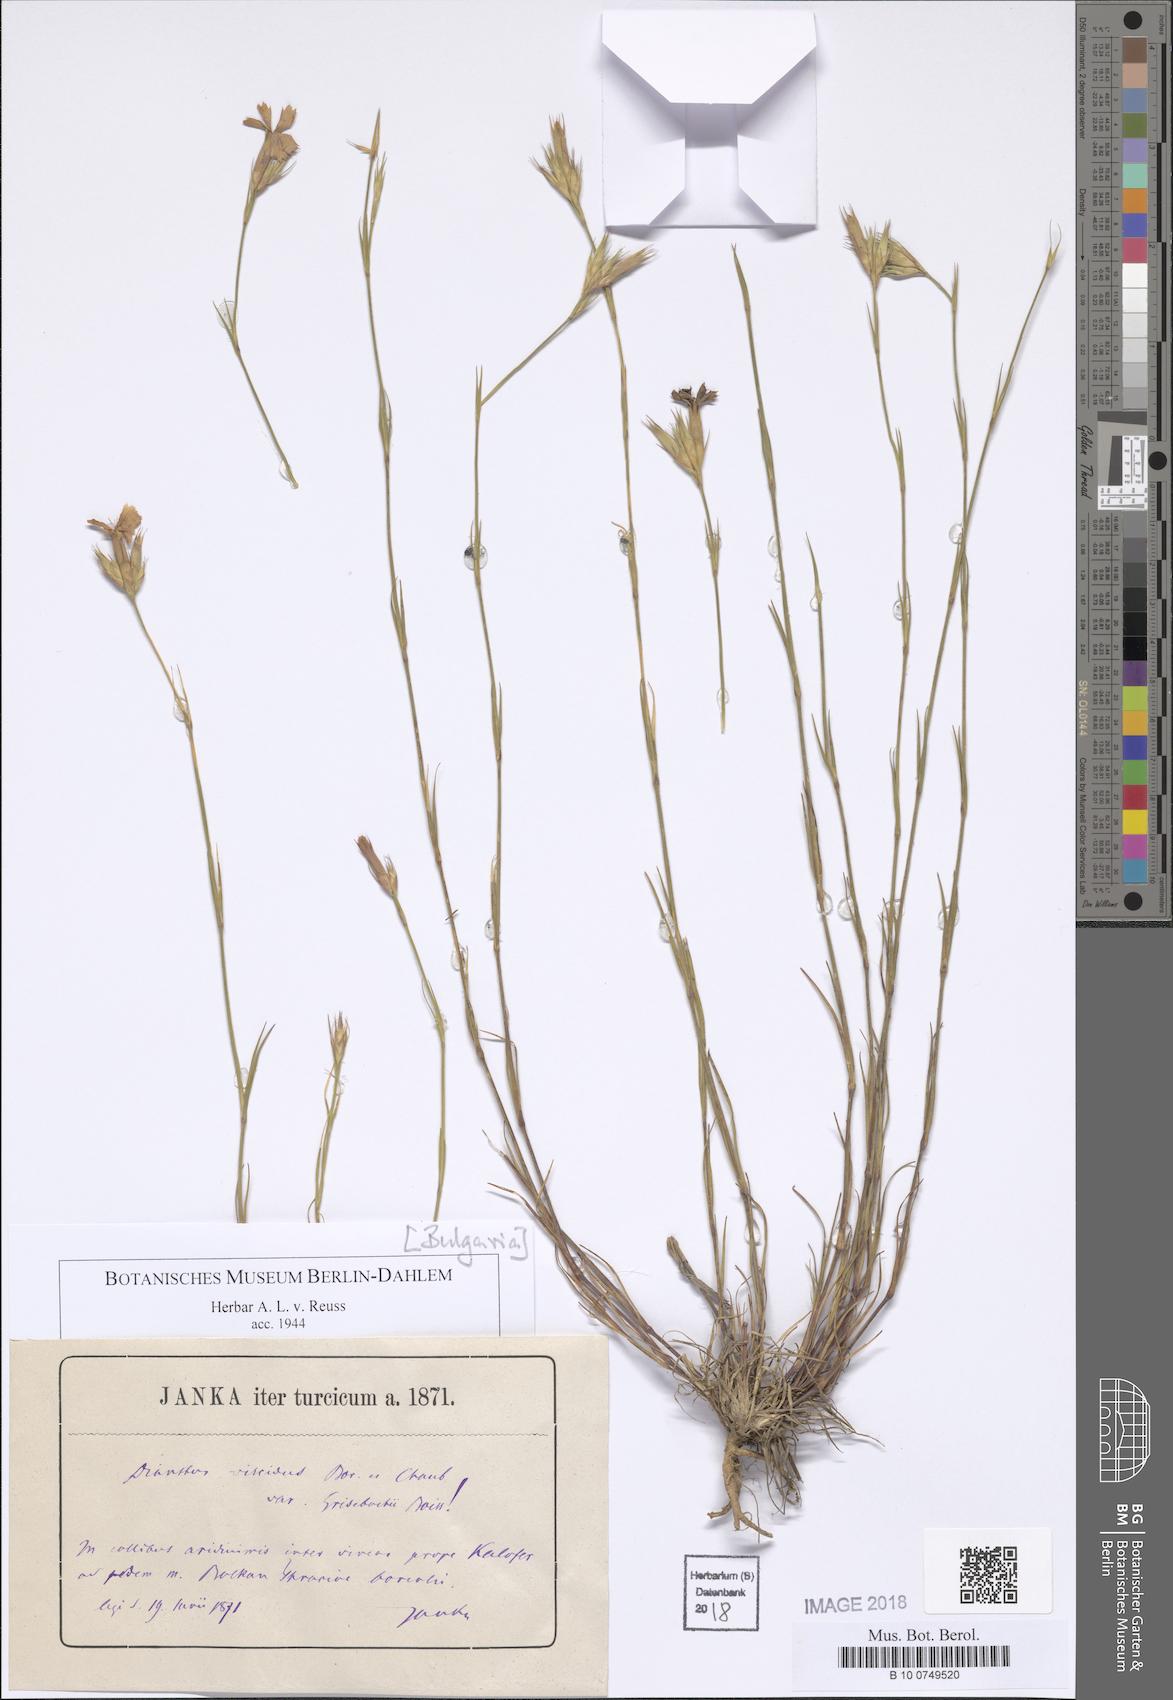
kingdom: Plantae
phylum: Tracheophyta
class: Magnoliopsida
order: Caryophyllales
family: Caryophyllaceae
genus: Dianthus
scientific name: Dianthus viscidus
